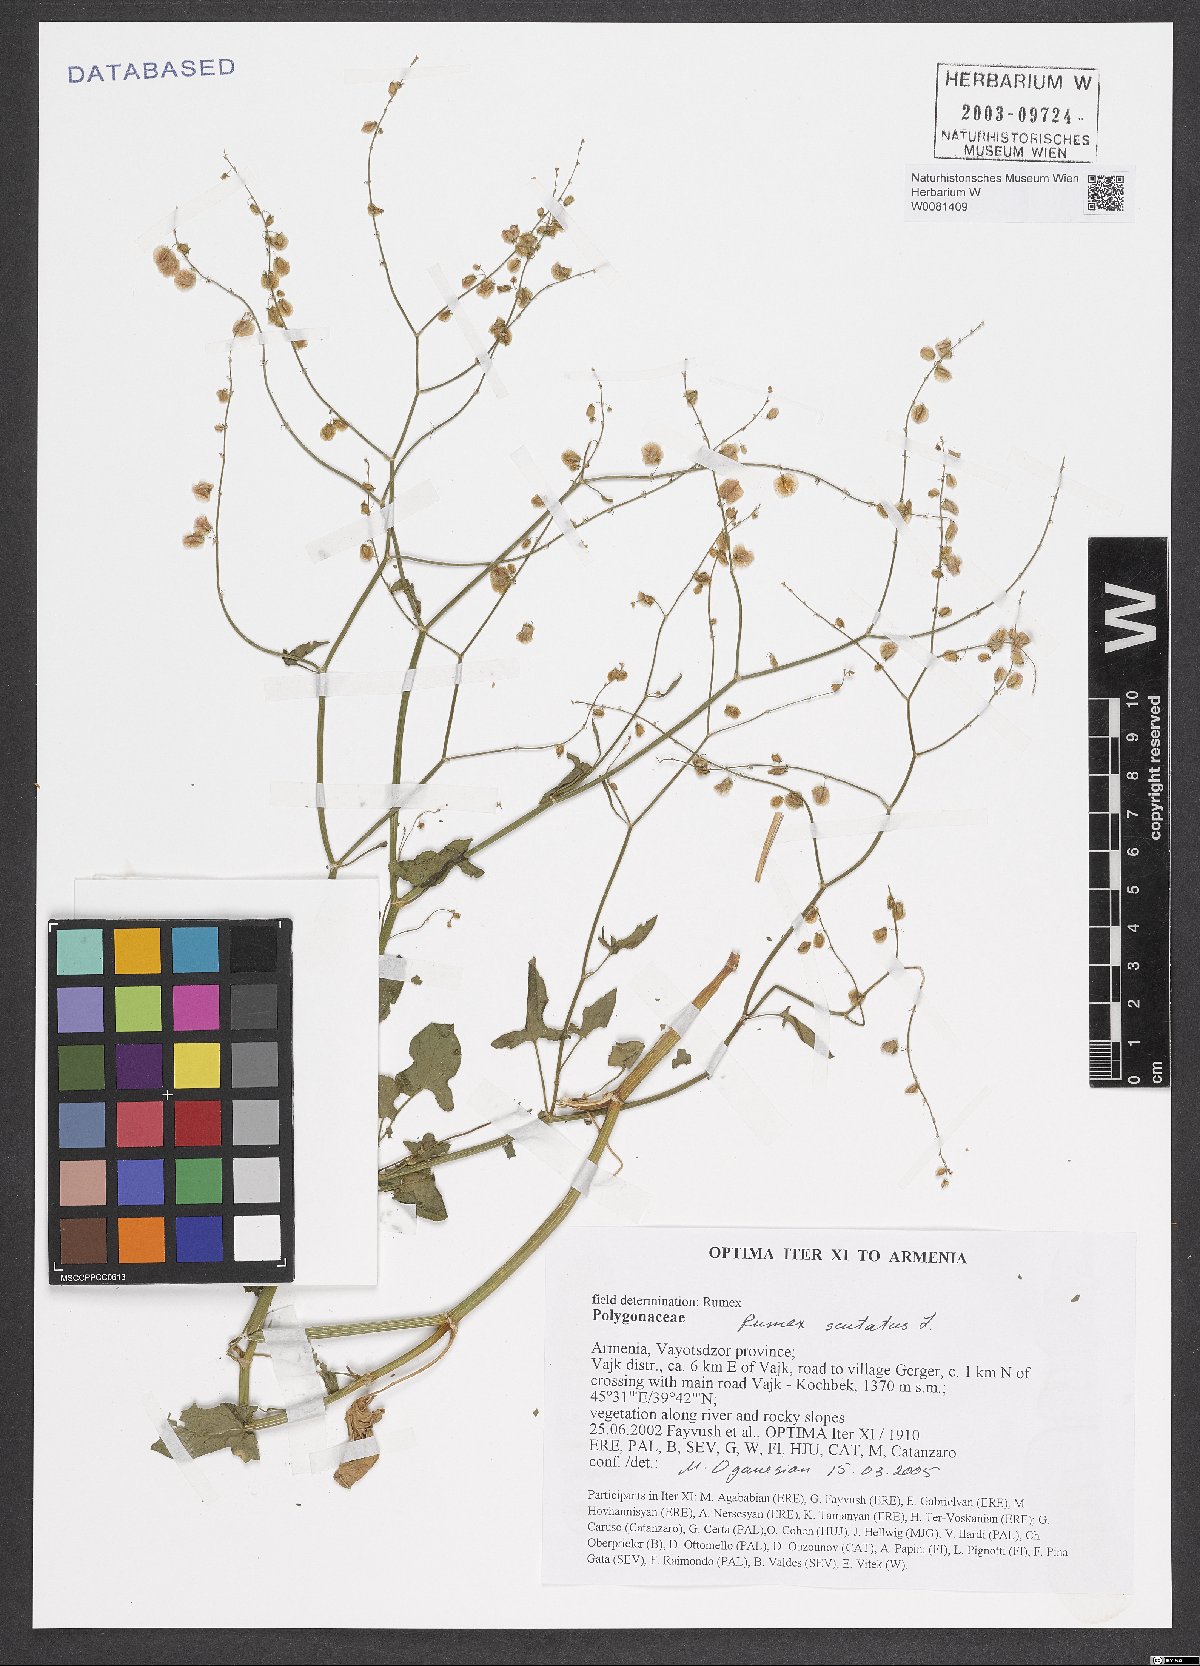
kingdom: Plantae
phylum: Tracheophyta
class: Magnoliopsida
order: Caryophyllales
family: Polygonaceae
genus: Rumex
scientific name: Rumex scutatus
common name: French sorrel
